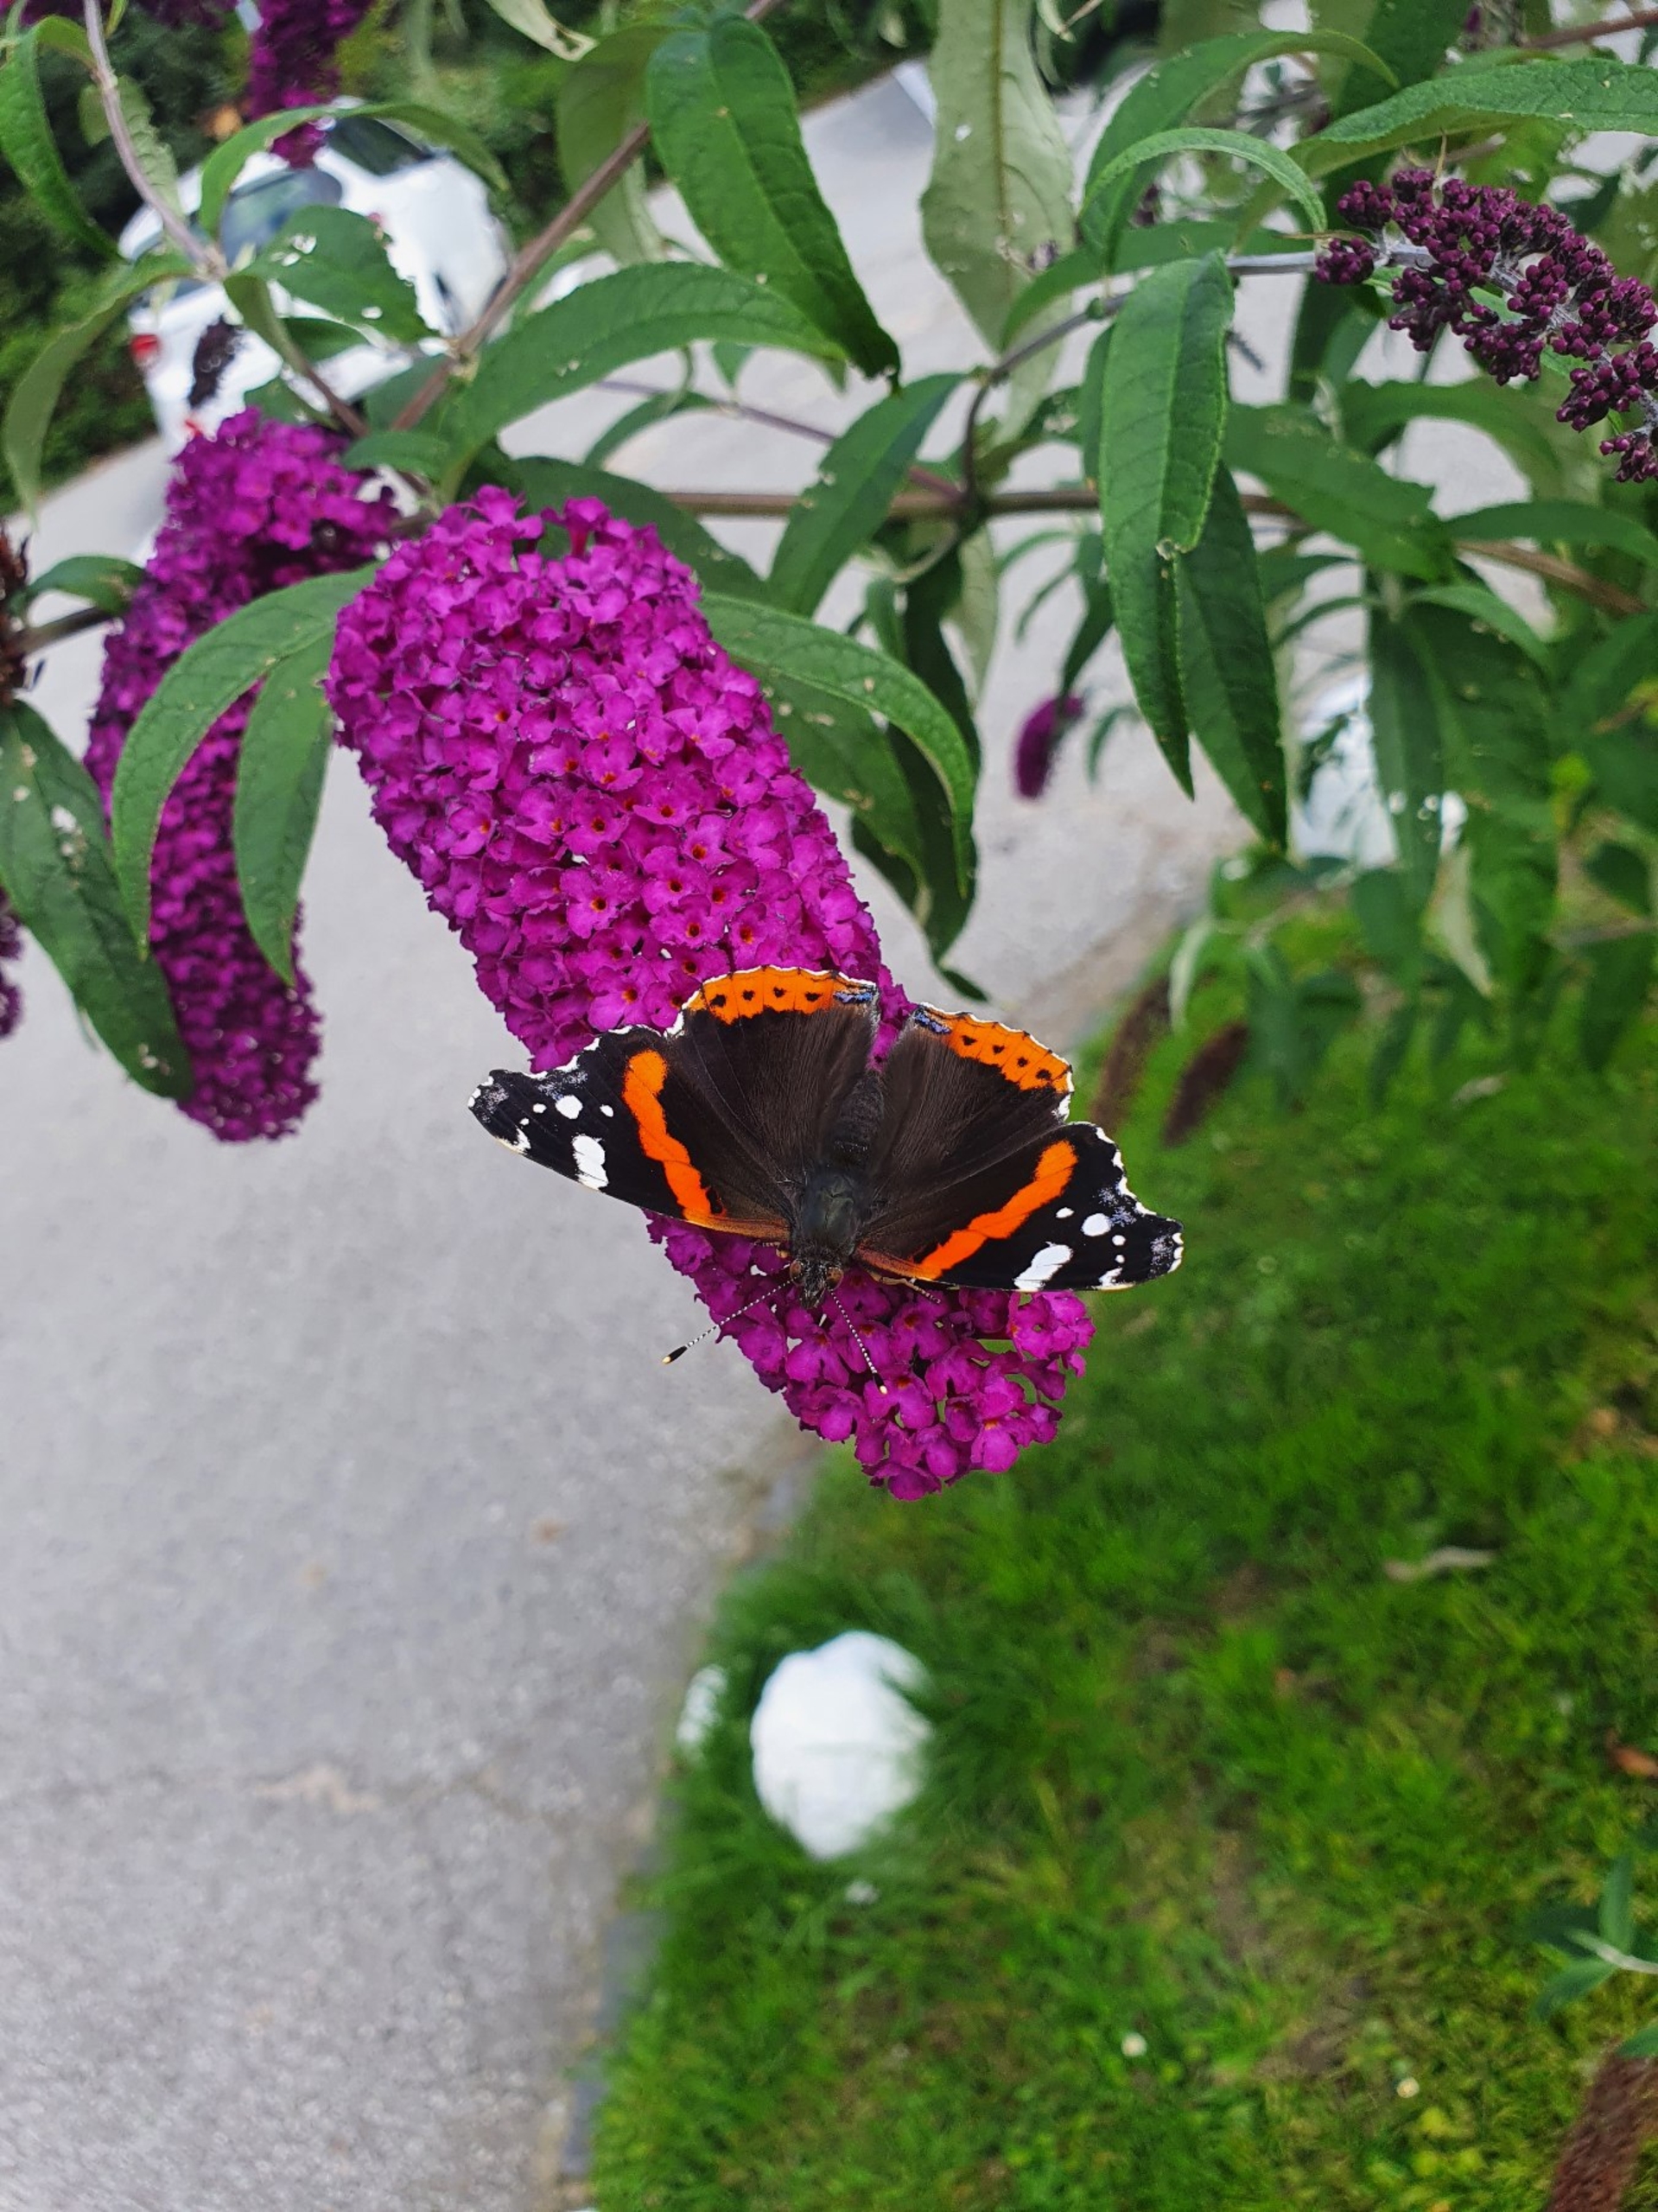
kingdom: Animalia
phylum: Arthropoda
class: Insecta
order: Lepidoptera
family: Nymphalidae
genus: Vanessa
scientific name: Vanessa atalanta
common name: Admiral
